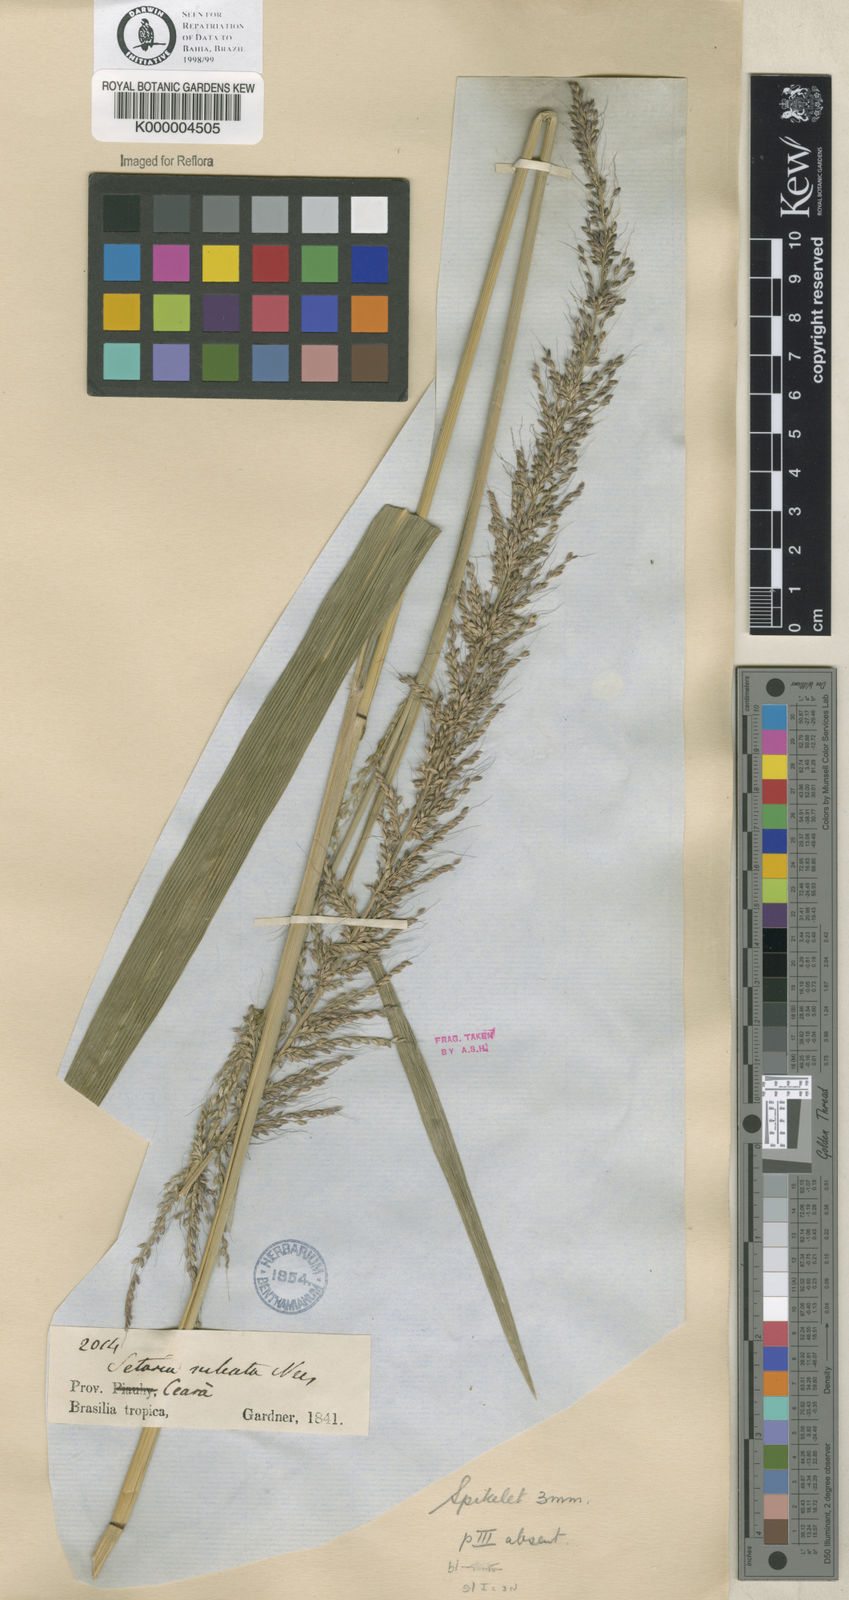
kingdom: Plantae
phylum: Tracheophyta
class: Liliopsida
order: Poales
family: Poaceae
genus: Setaria
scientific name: Setaria megaphylla
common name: Bigleaf bristlegrass
